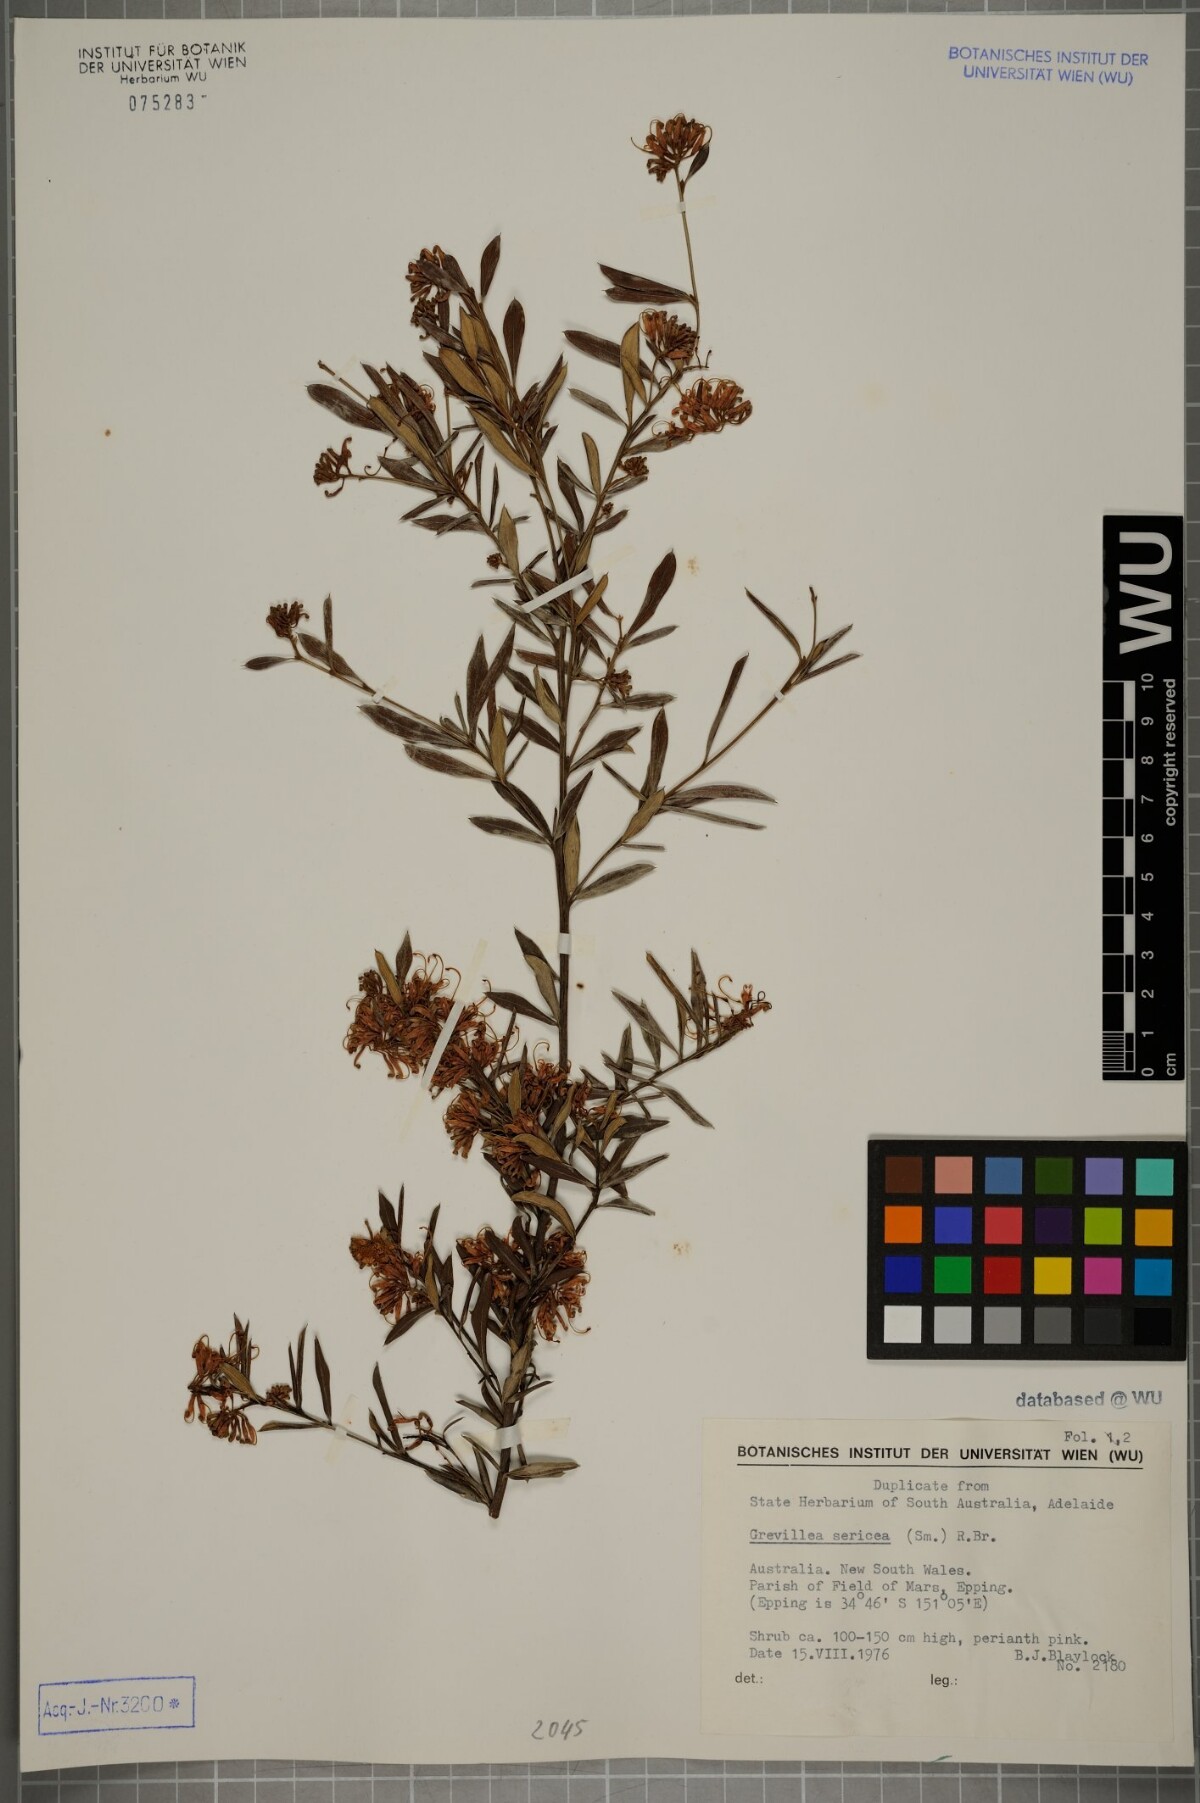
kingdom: Plantae
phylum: Tracheophyta
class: Magnoliopsida
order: Proteales
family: Proteaceae
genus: Grevillea
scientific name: Grevillea sericea
